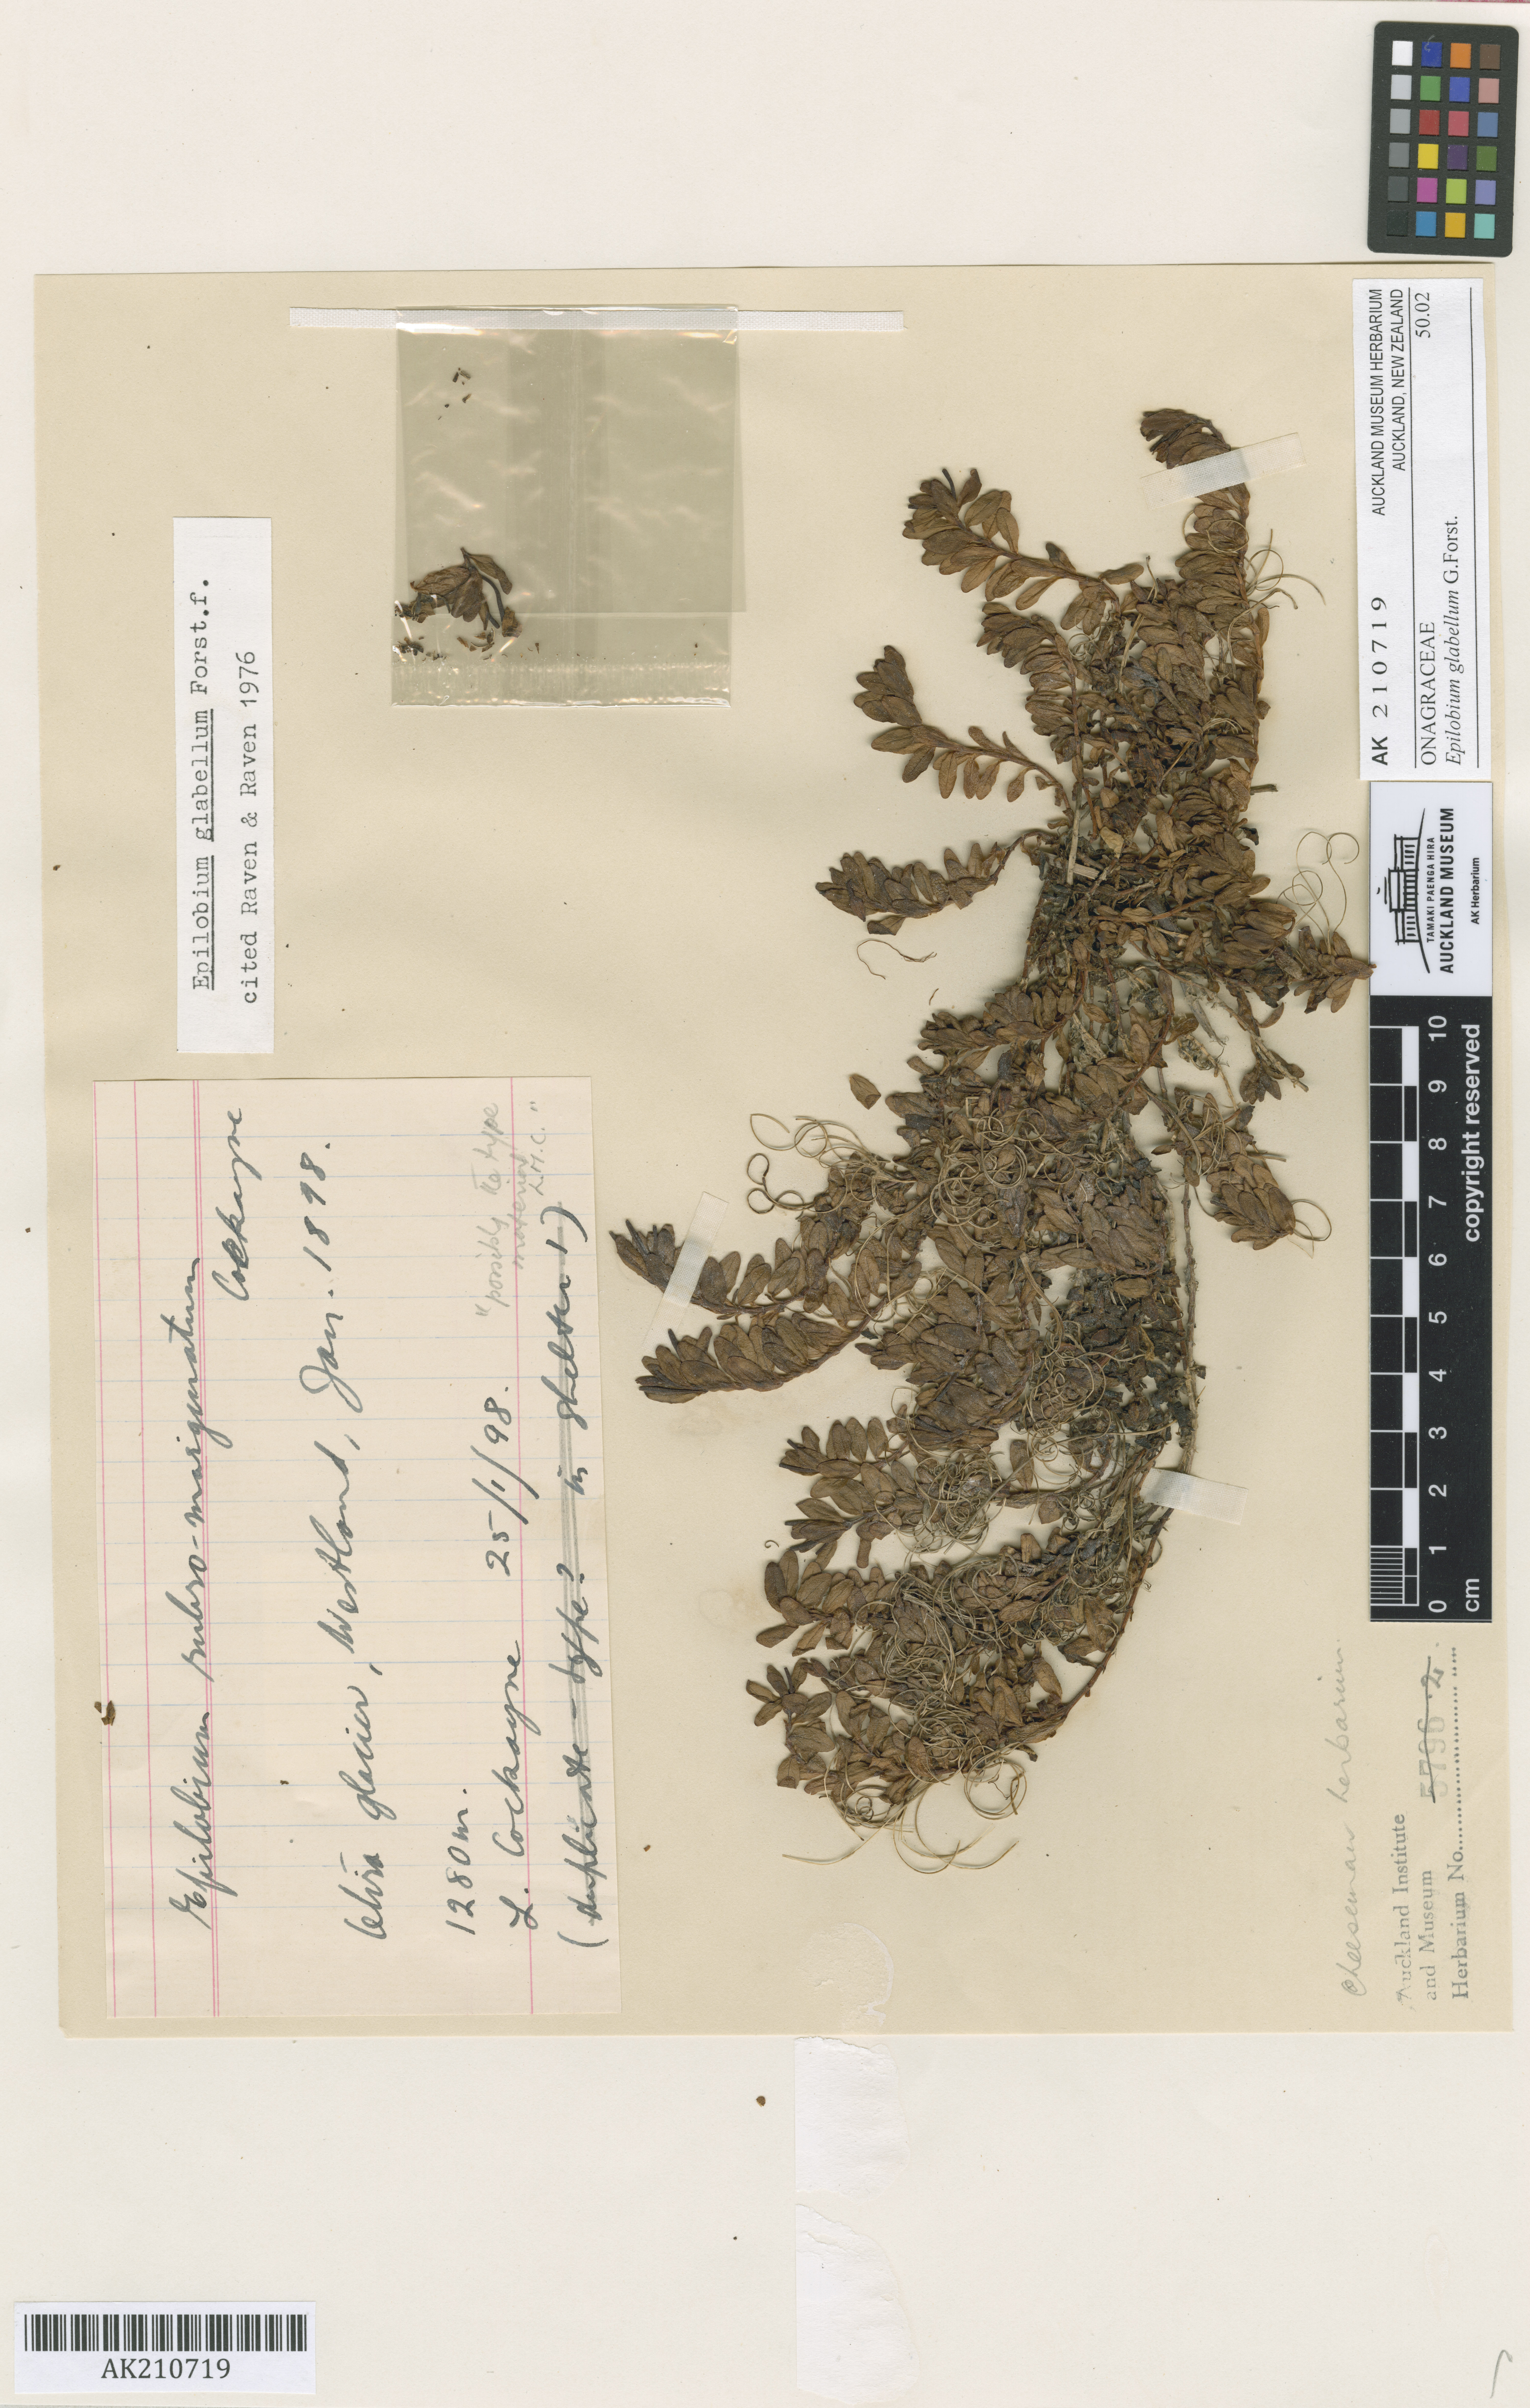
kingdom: Plantae
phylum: Tracheophyta
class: Magnoliopsida
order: Myrtales
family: Onagraceae
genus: Epilobium
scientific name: Epilobium glabellum
